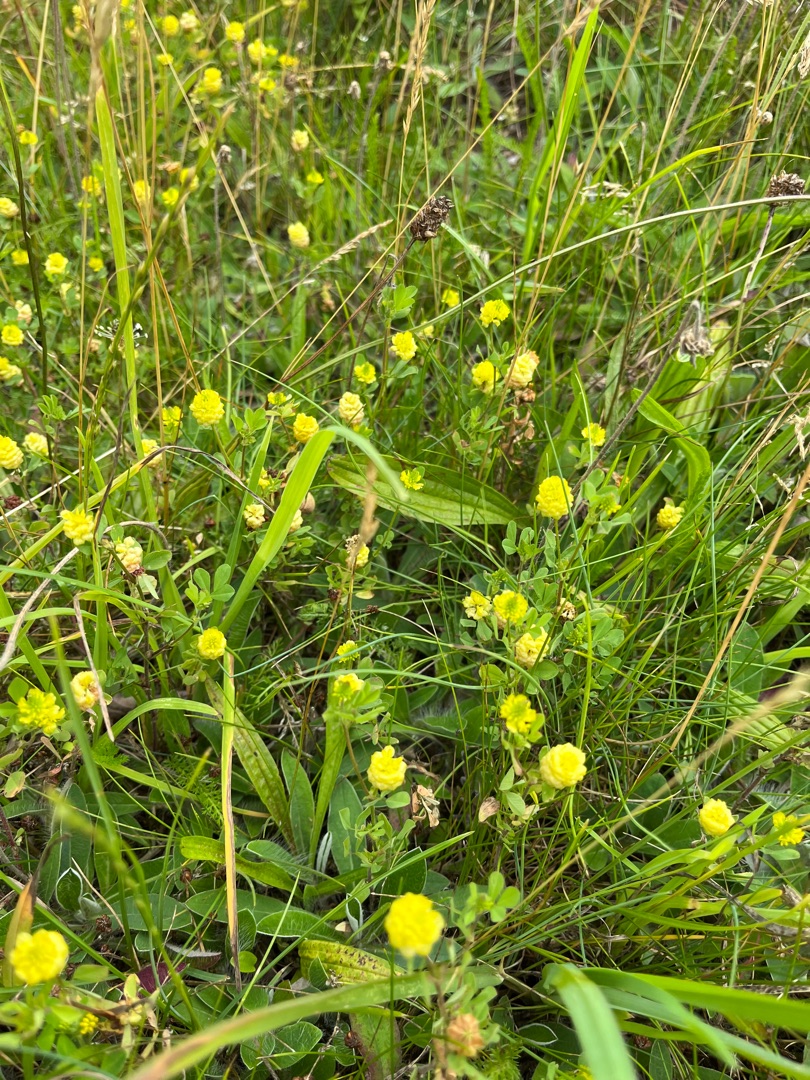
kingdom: Plantae
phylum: Tracheophyta
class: Magnoliopsida
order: Fabales
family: Fabaceae
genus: Trifolium
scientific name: Trifolium campestre
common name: Gul kløver
